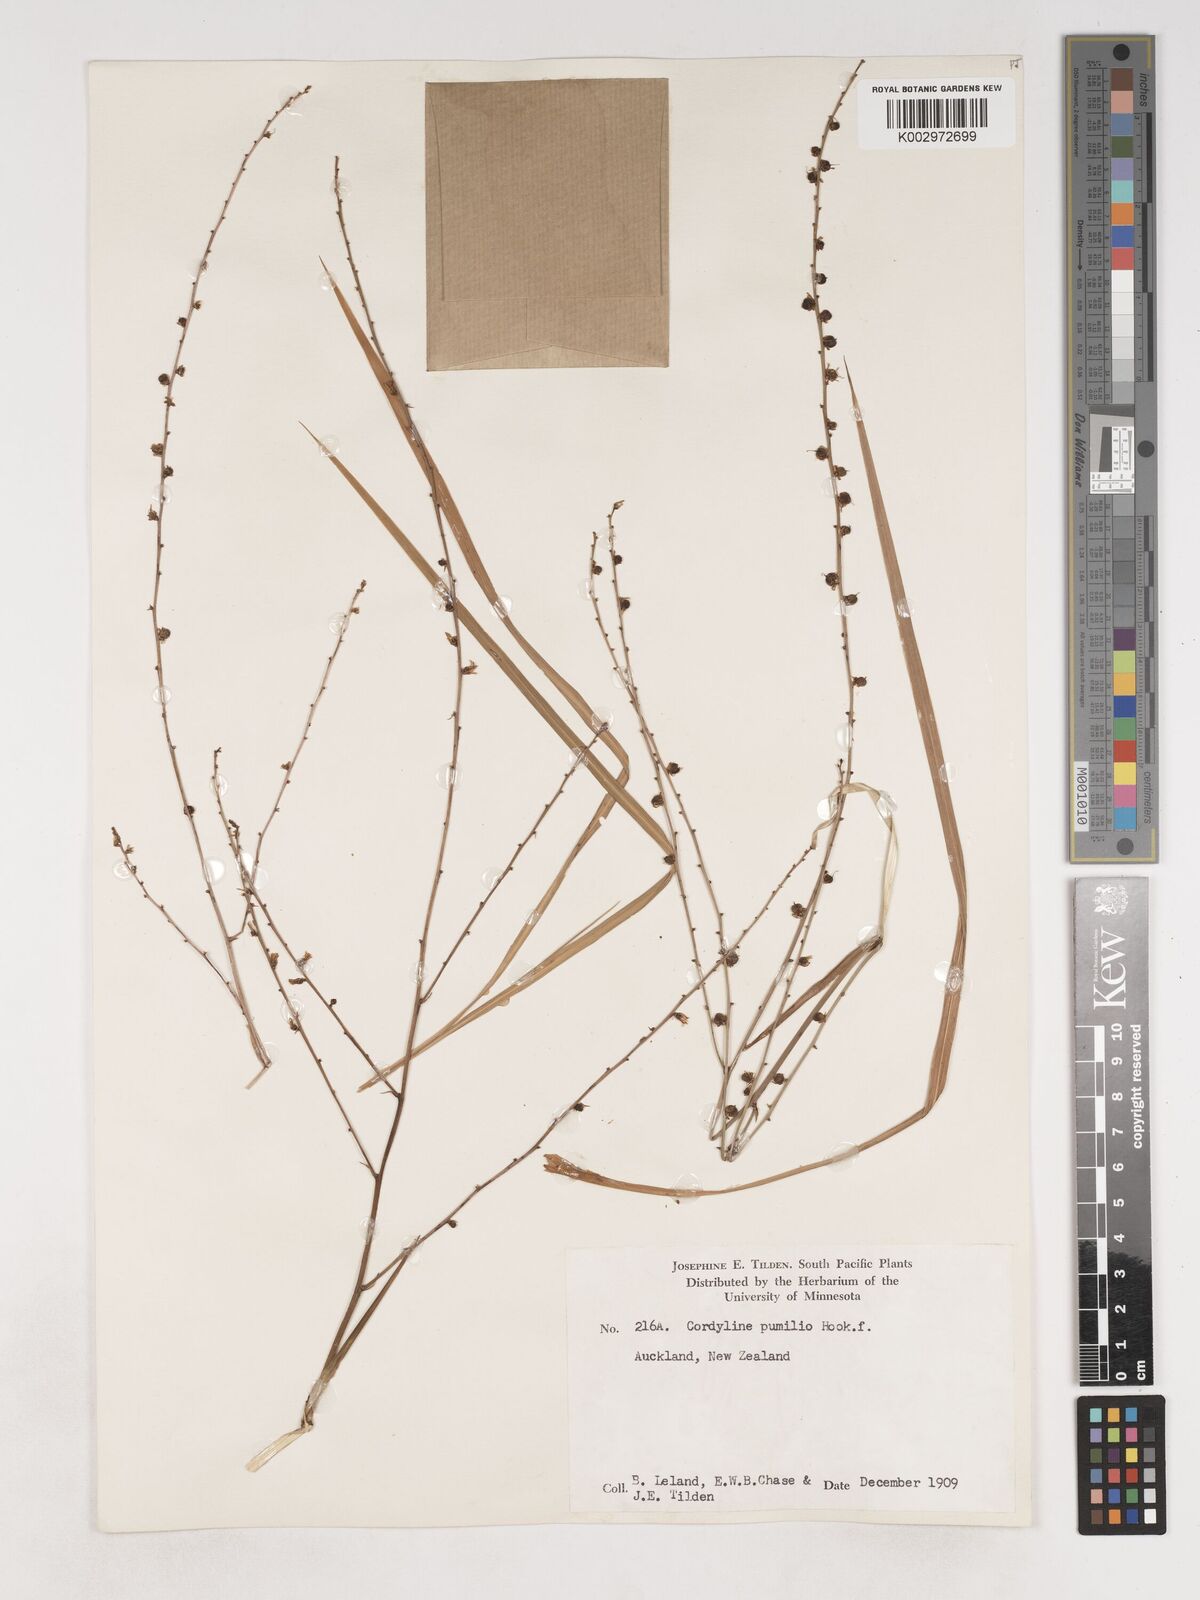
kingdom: Plantae
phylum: Tracheophyta
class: Liliopsida
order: Asparagales
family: Asparagaceae
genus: Cordyline
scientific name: Cordyline pumilio
